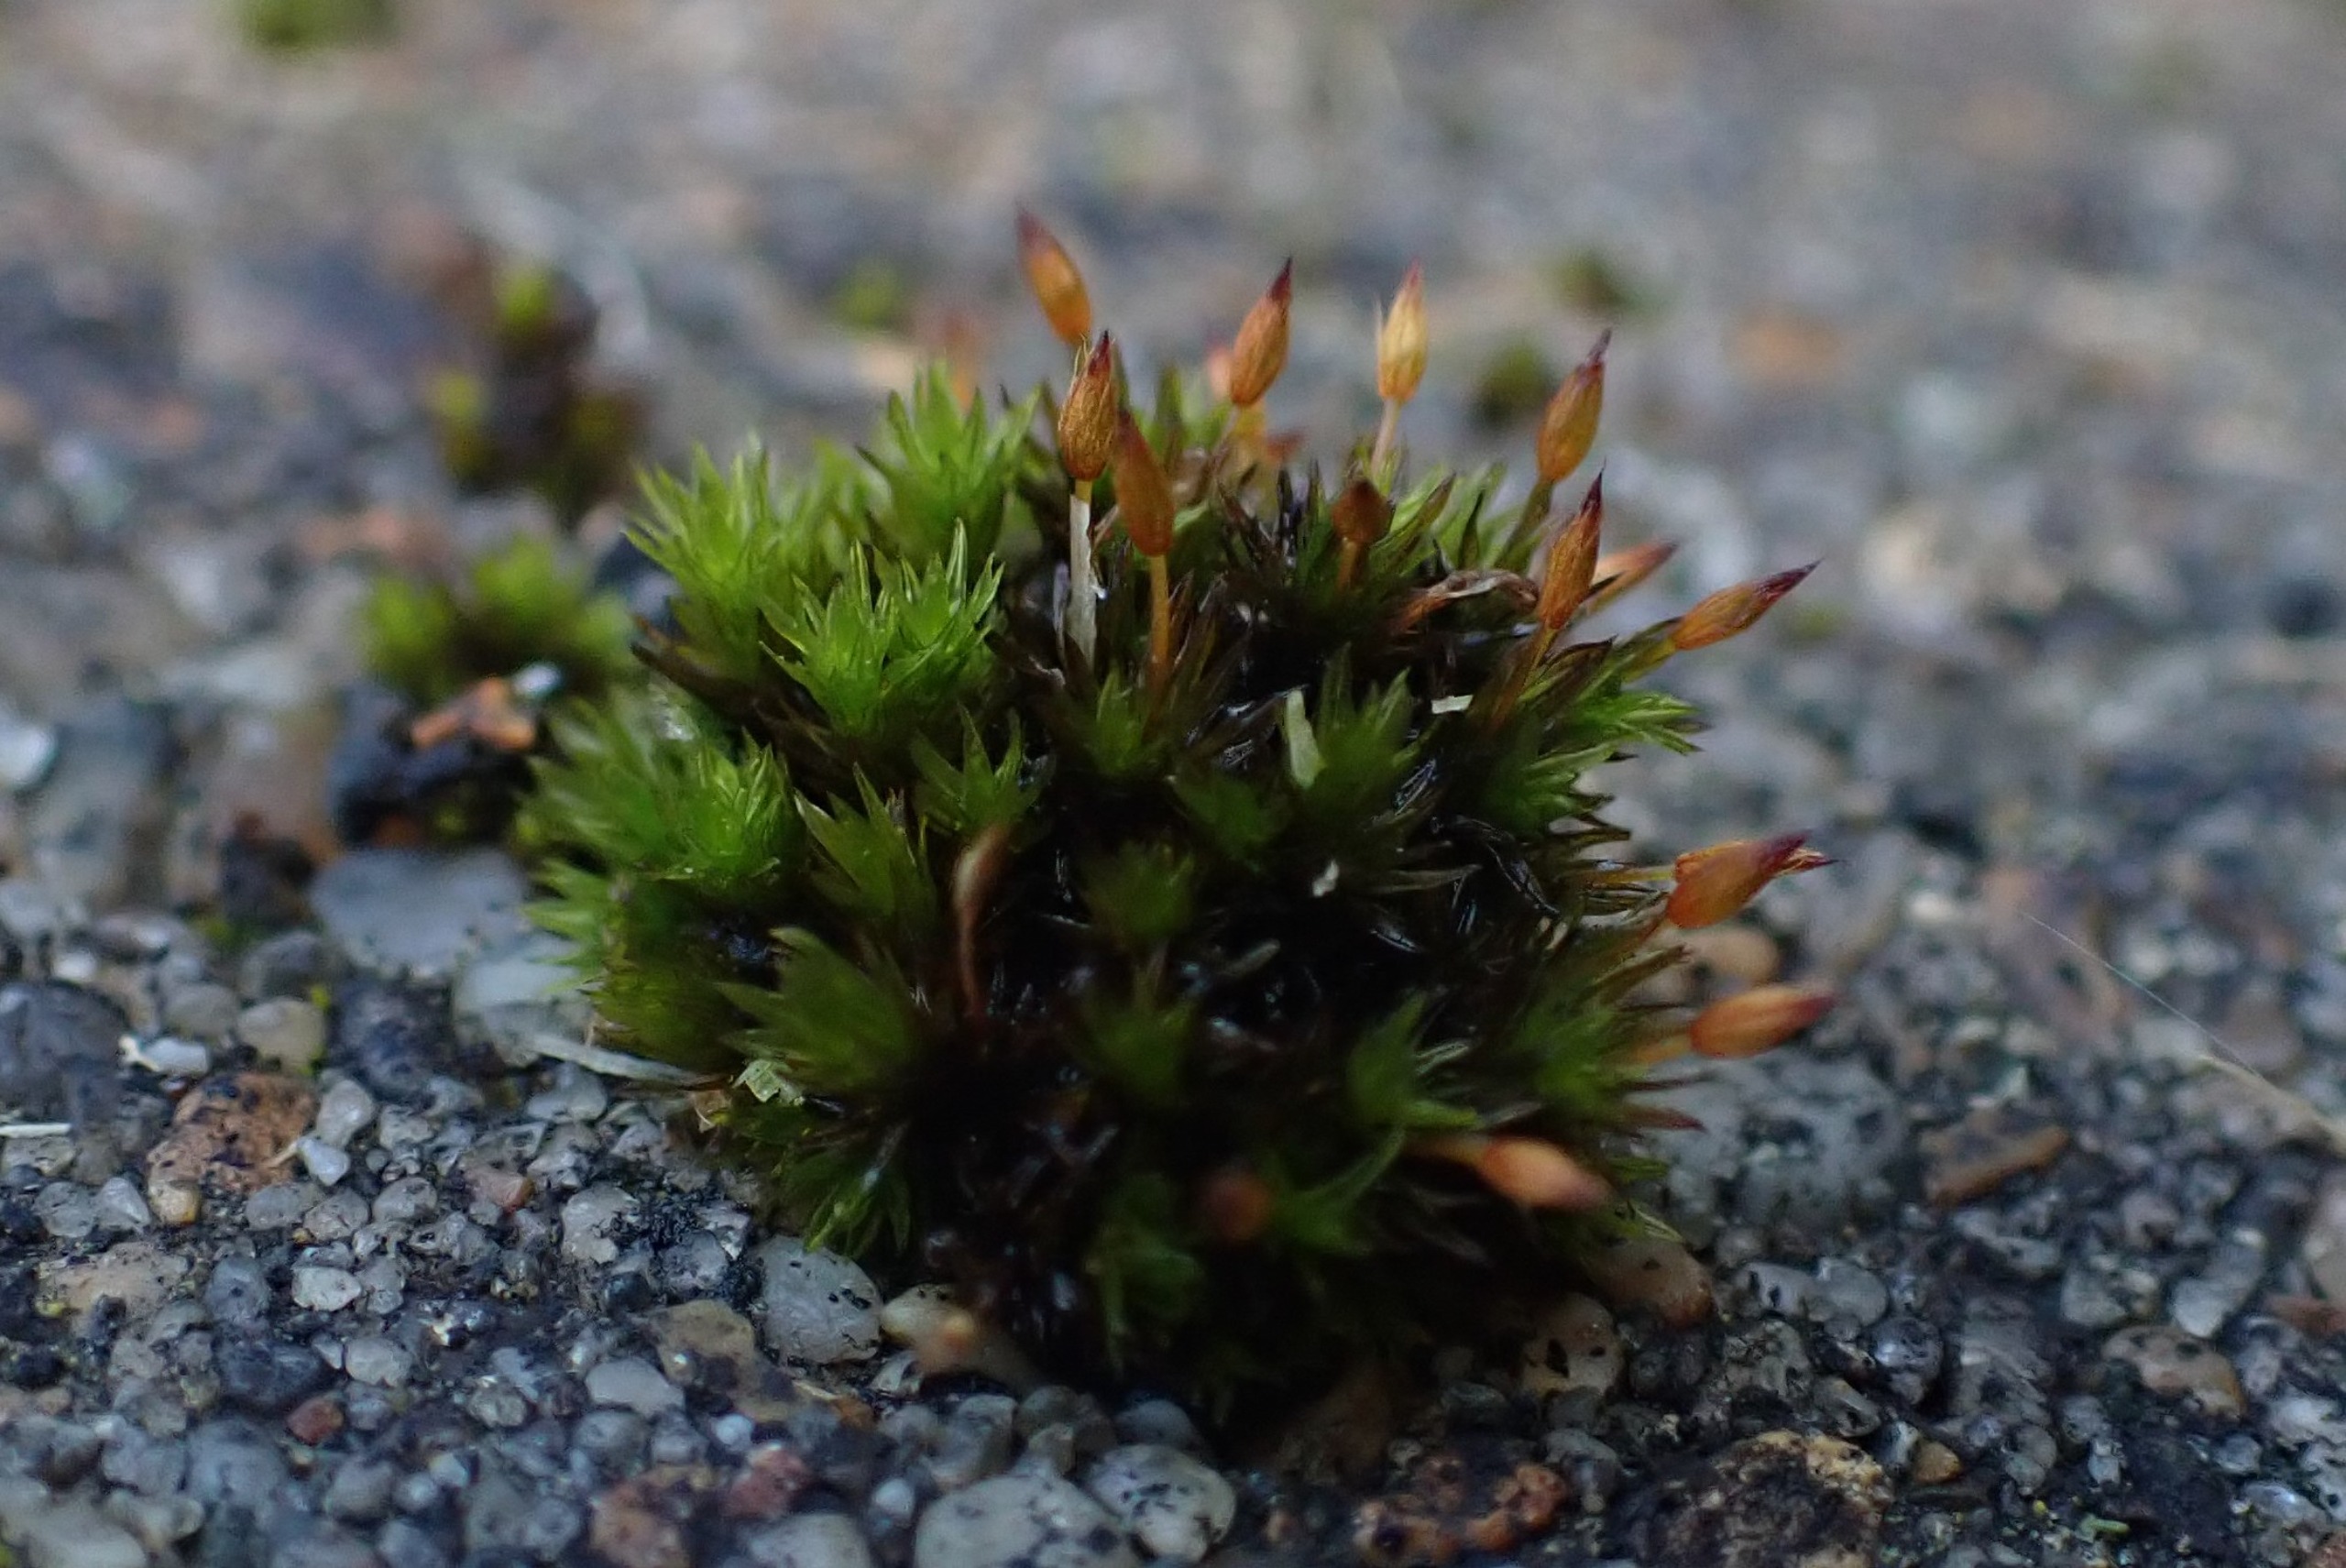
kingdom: Plantae
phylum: Bryophyta
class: Bryopsida
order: Orthotrichales
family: Orthotrichaceae
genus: Orthotrichum
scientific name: Orthotrichum anomalum
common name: Mørk furehætte
